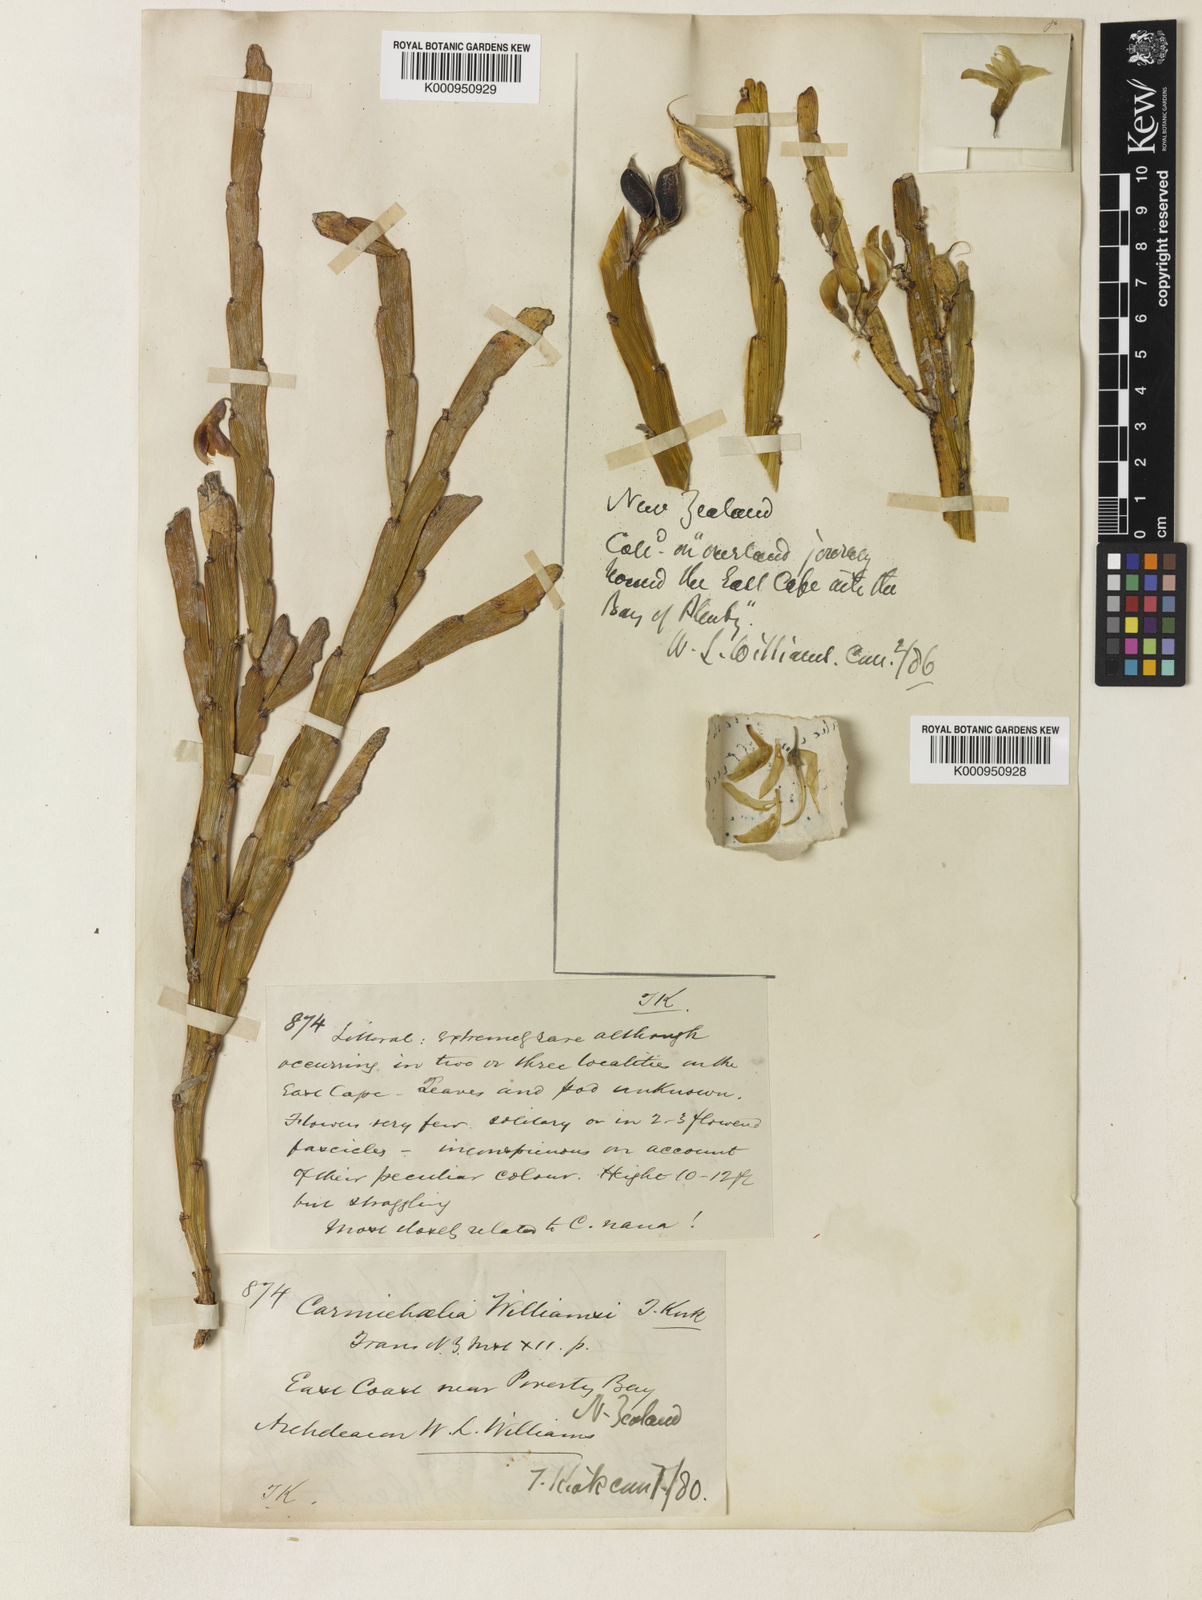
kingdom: Plantae
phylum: Tracheophyta
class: Magnoliopsida
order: Fabales
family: Fabaceae
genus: Carmichaelia
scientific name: Carmichaelia williamsii
